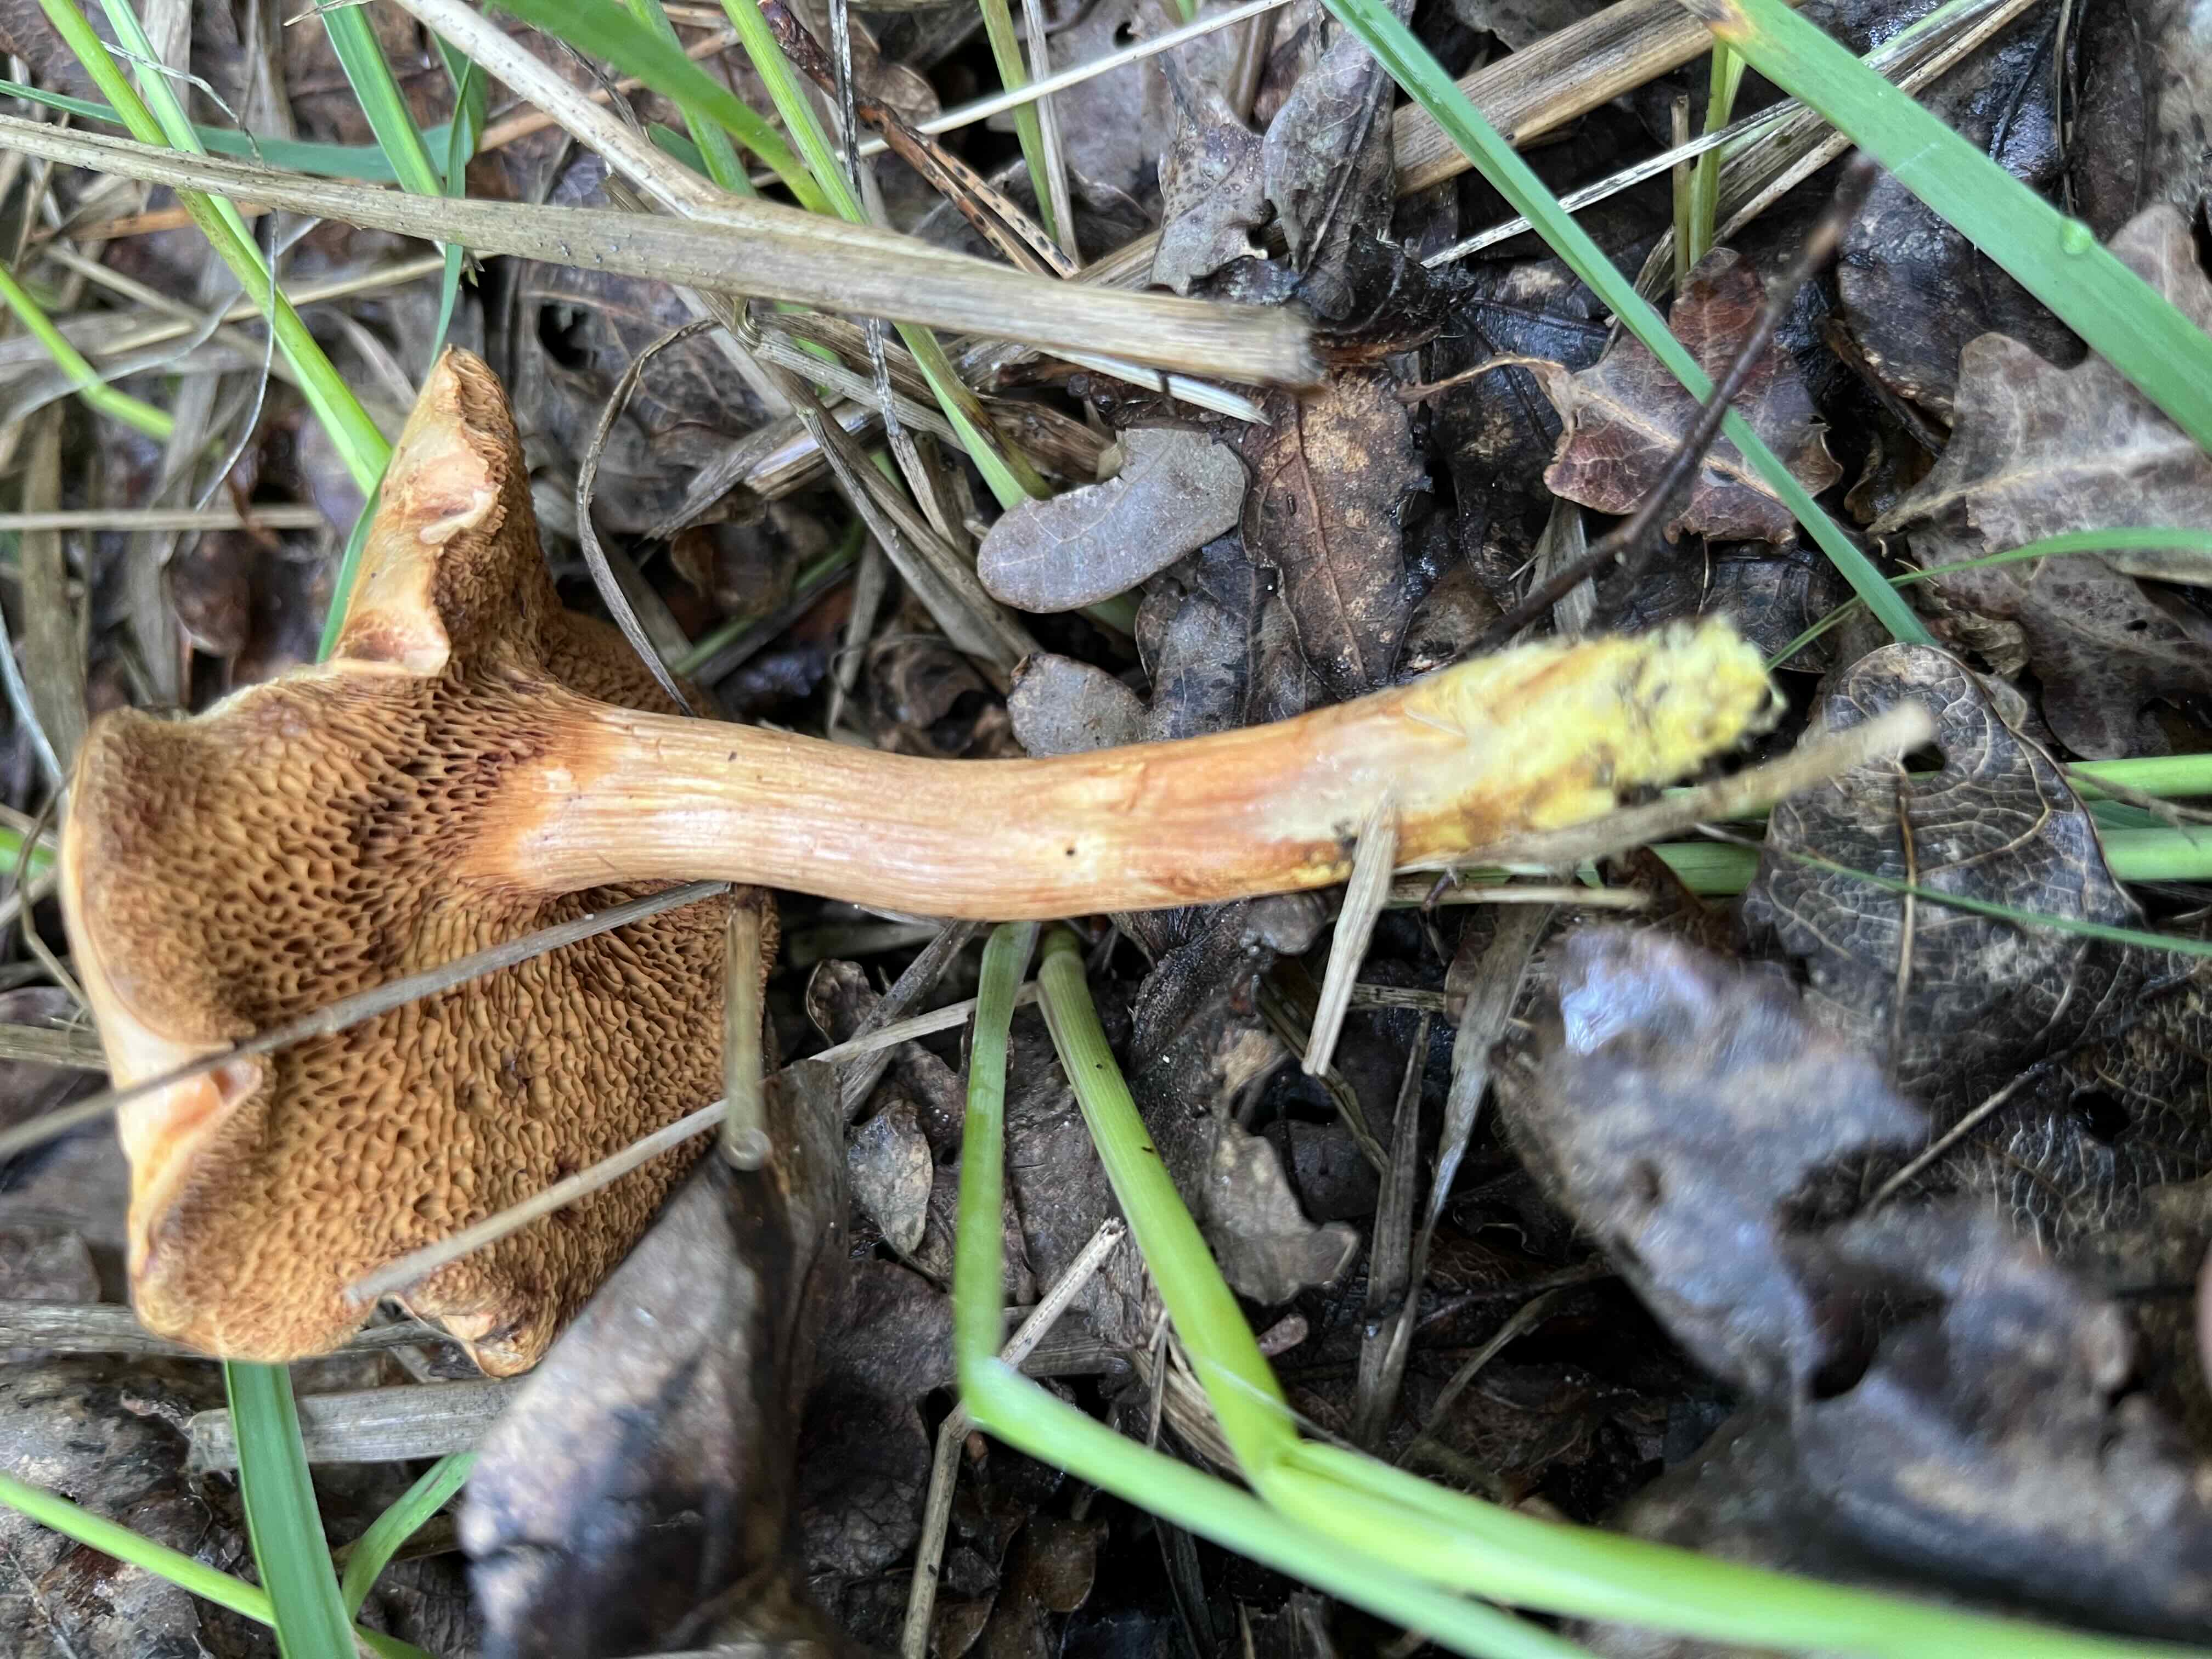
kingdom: Fungi
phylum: Basidiomycota
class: Agaricomycetes
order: Boletales
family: Boletaceae
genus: Chalciporus
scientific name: Chalciporus piperatus
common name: peberrørhat
